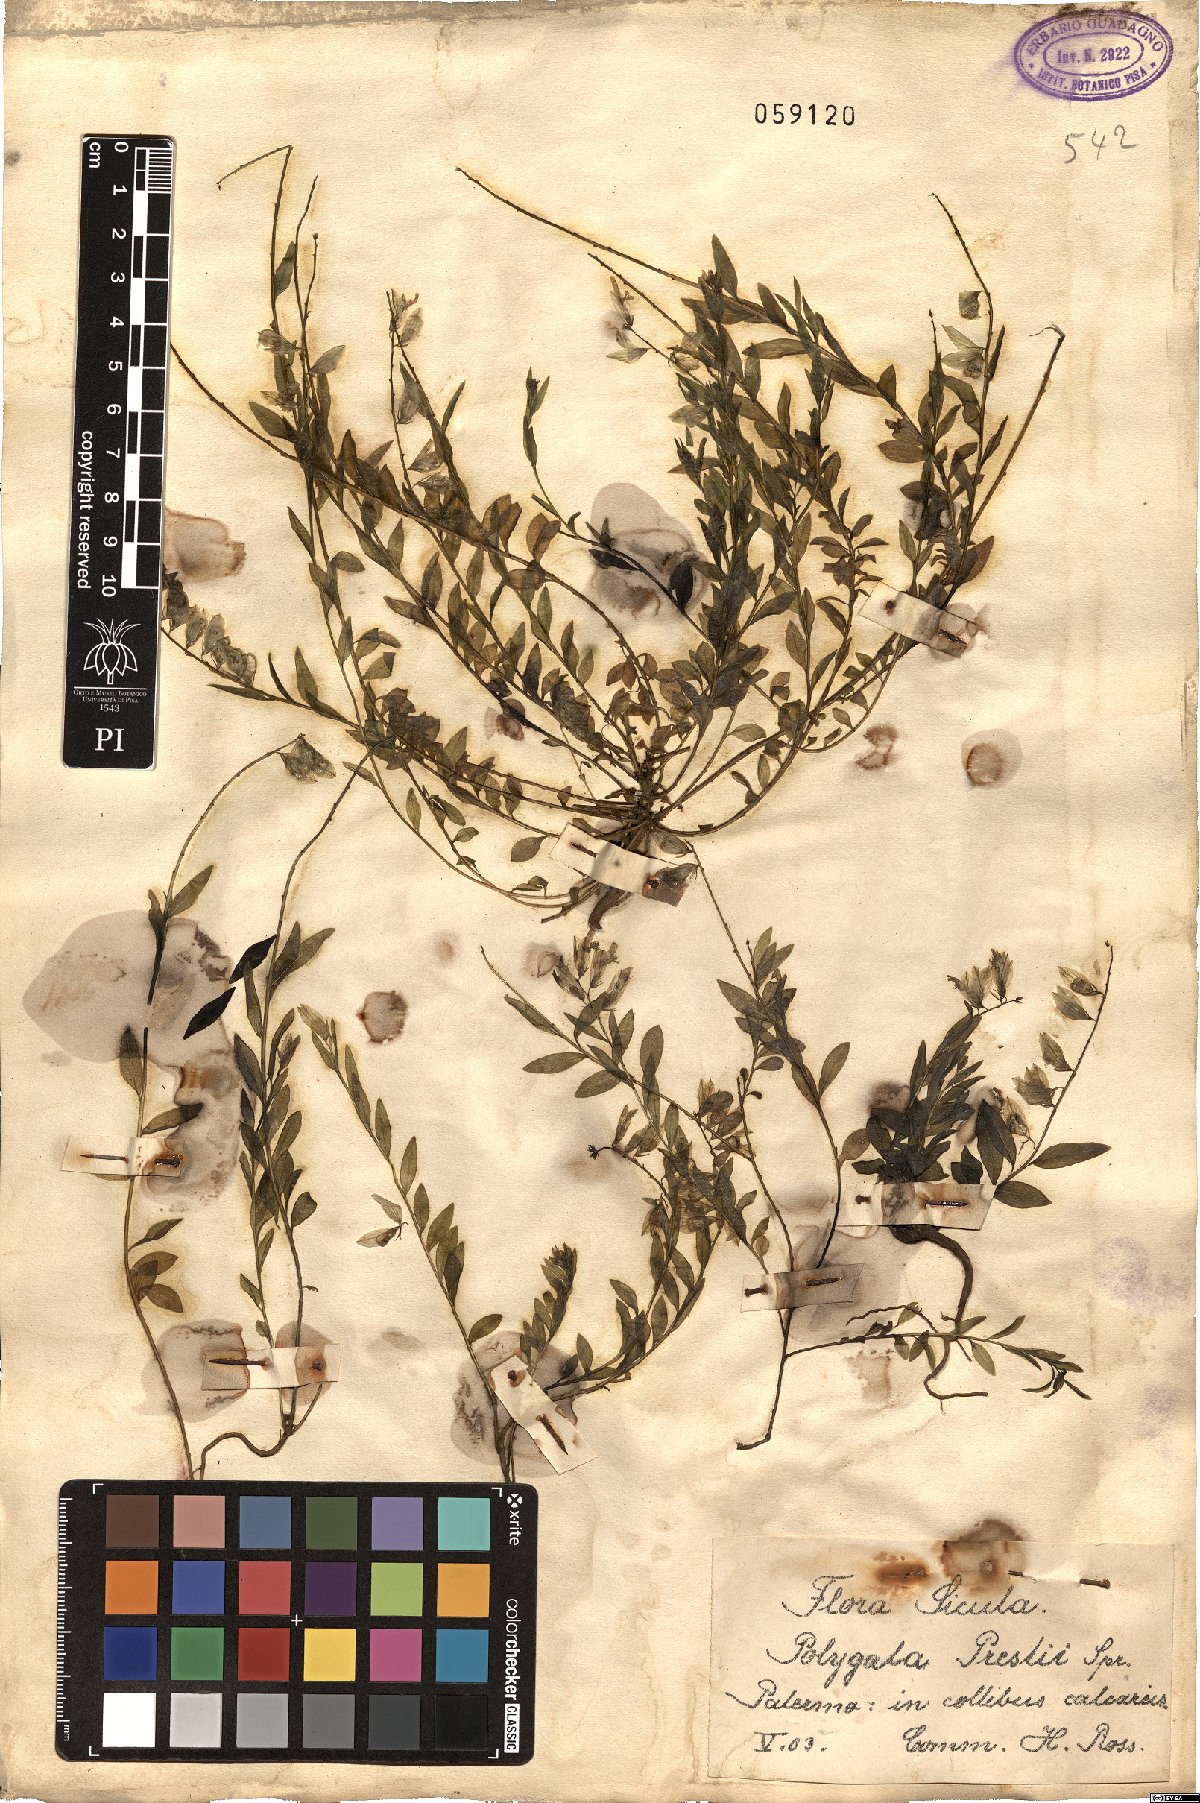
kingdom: Plantae
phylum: Tracheophyta
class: Magnoliopsida
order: Fabales
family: Polygalaceae
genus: Polygala
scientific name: Polygala preslii
